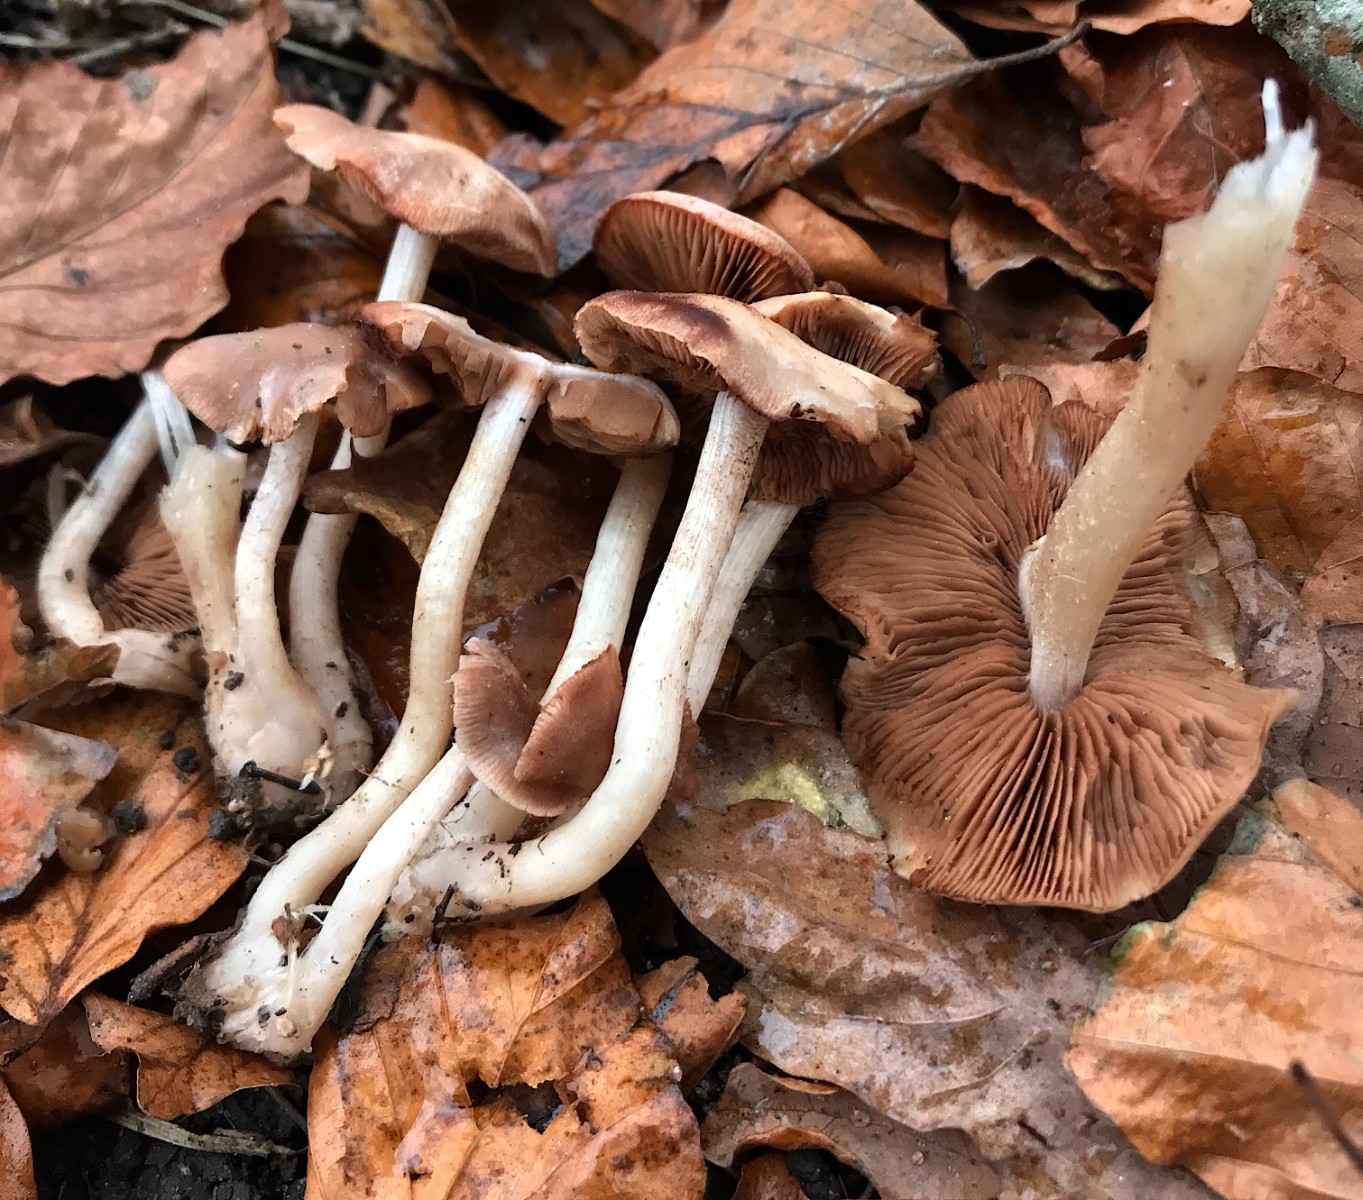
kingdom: Fungi
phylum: Basidiomycota
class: Agaricomycetes
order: Agaricales
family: Psathyrellaceae
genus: Psathyrella
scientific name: Psathyrella piluliformis
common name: lysstokket mørkhat
